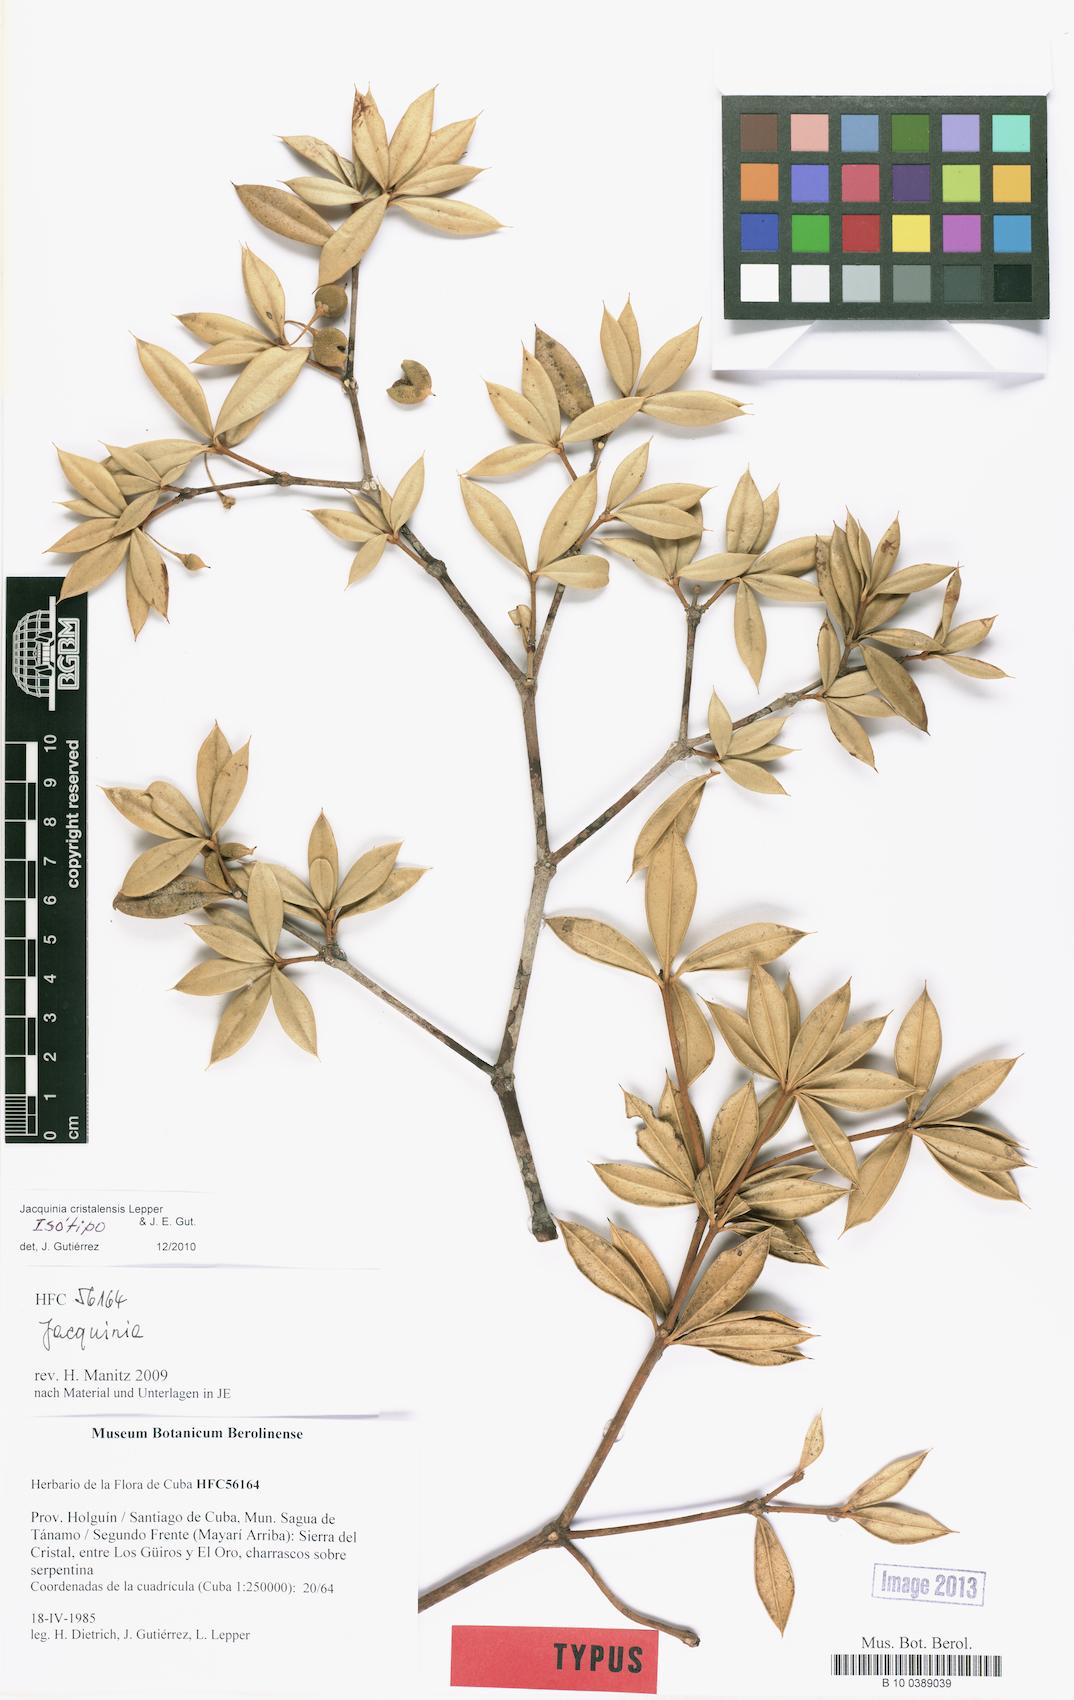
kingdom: Plantae
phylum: Tracheophyta
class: Magnoliopsida
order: Ericales
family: Primulaceae
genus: Jacquinia
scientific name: Jacquinia cristalensis
